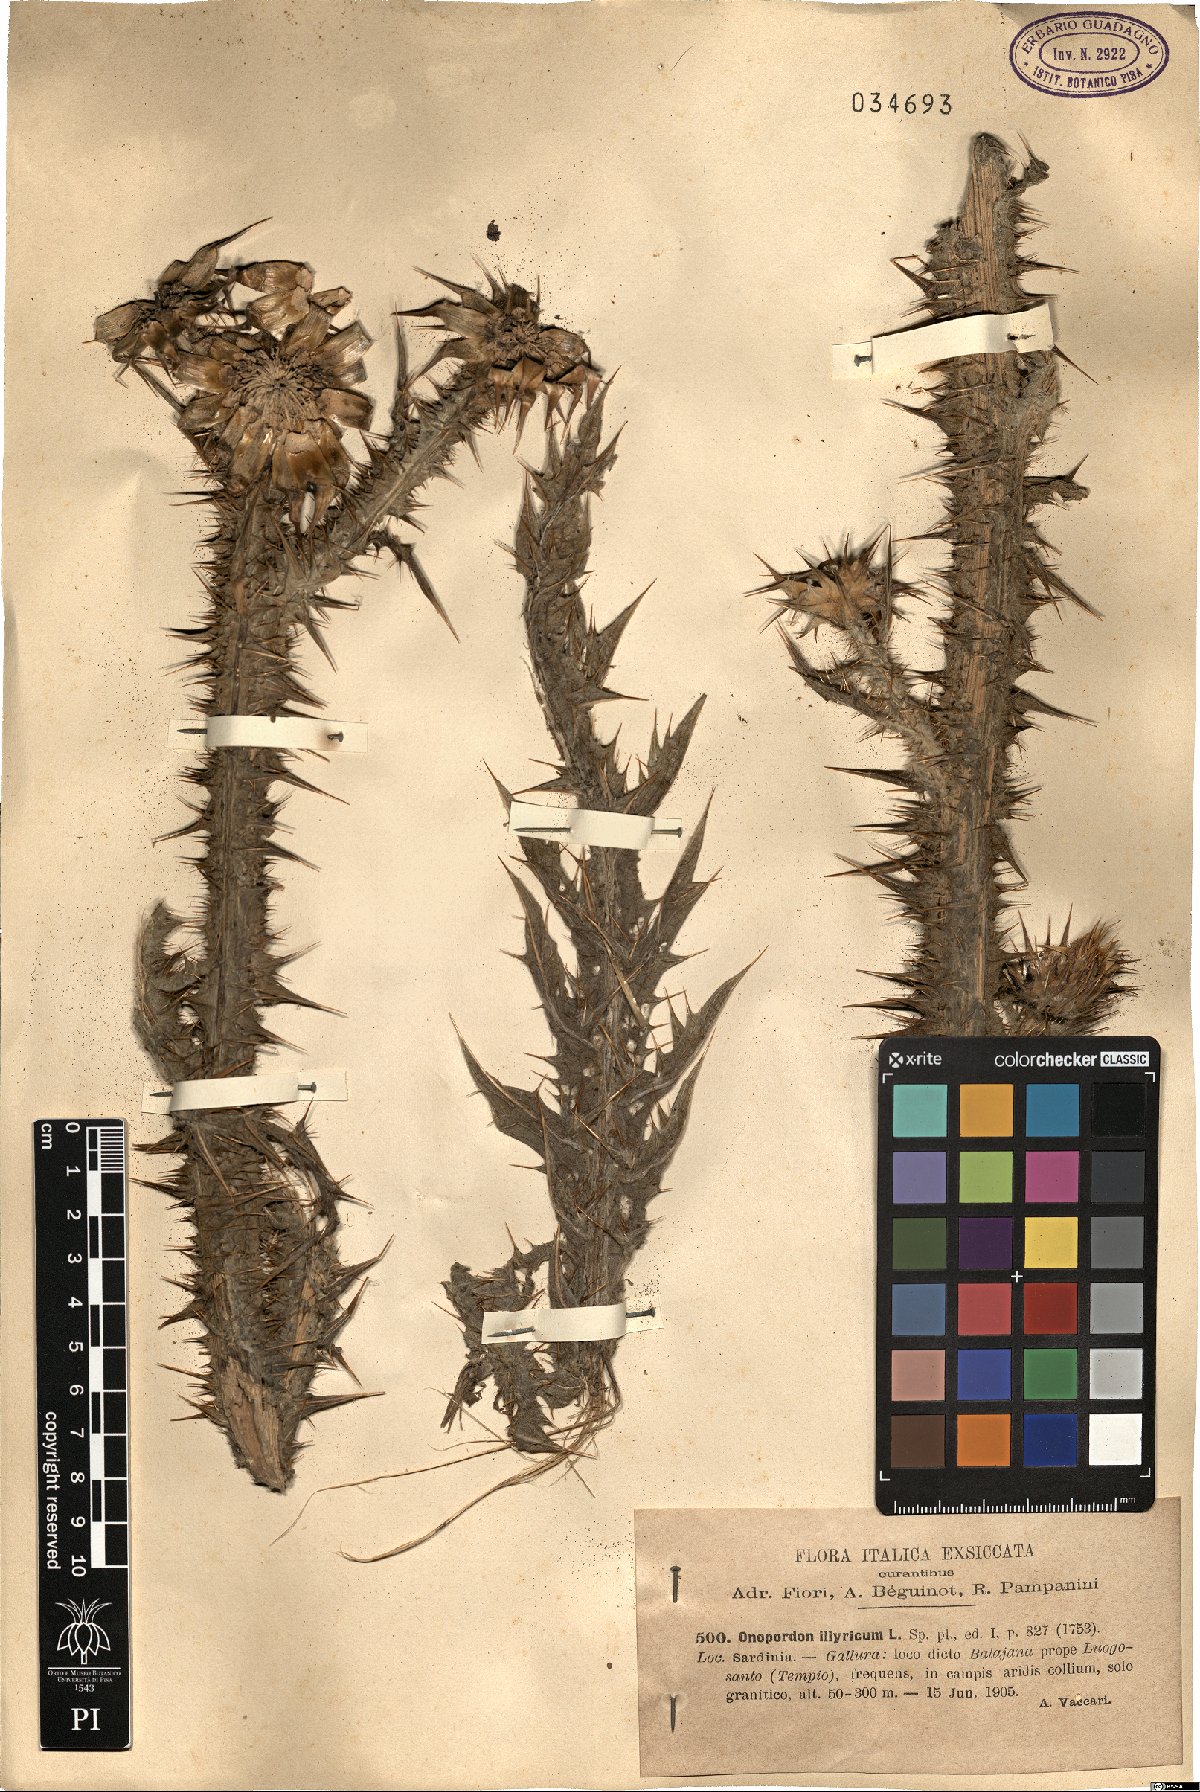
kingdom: Plantae
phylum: Tracheophyta
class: Magnoliopsida
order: Asterales
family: Asteraceae
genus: Onopordum
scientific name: Onopordum illyricum
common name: Illyrian thistle
